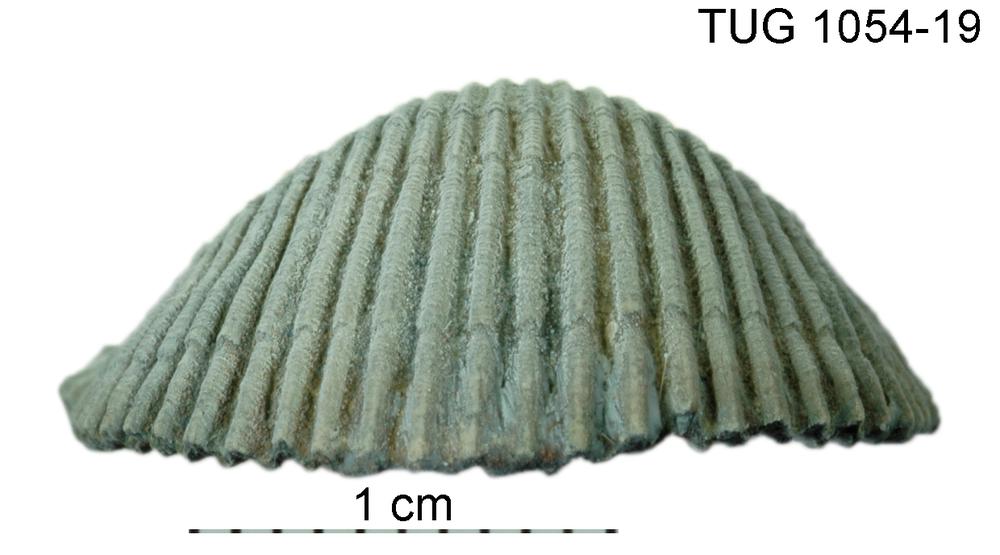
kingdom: Animalia
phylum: Brachiopoda
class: Rhynchonellata
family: Orthidae
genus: Cyrtonotella
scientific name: Cyrtonotella
